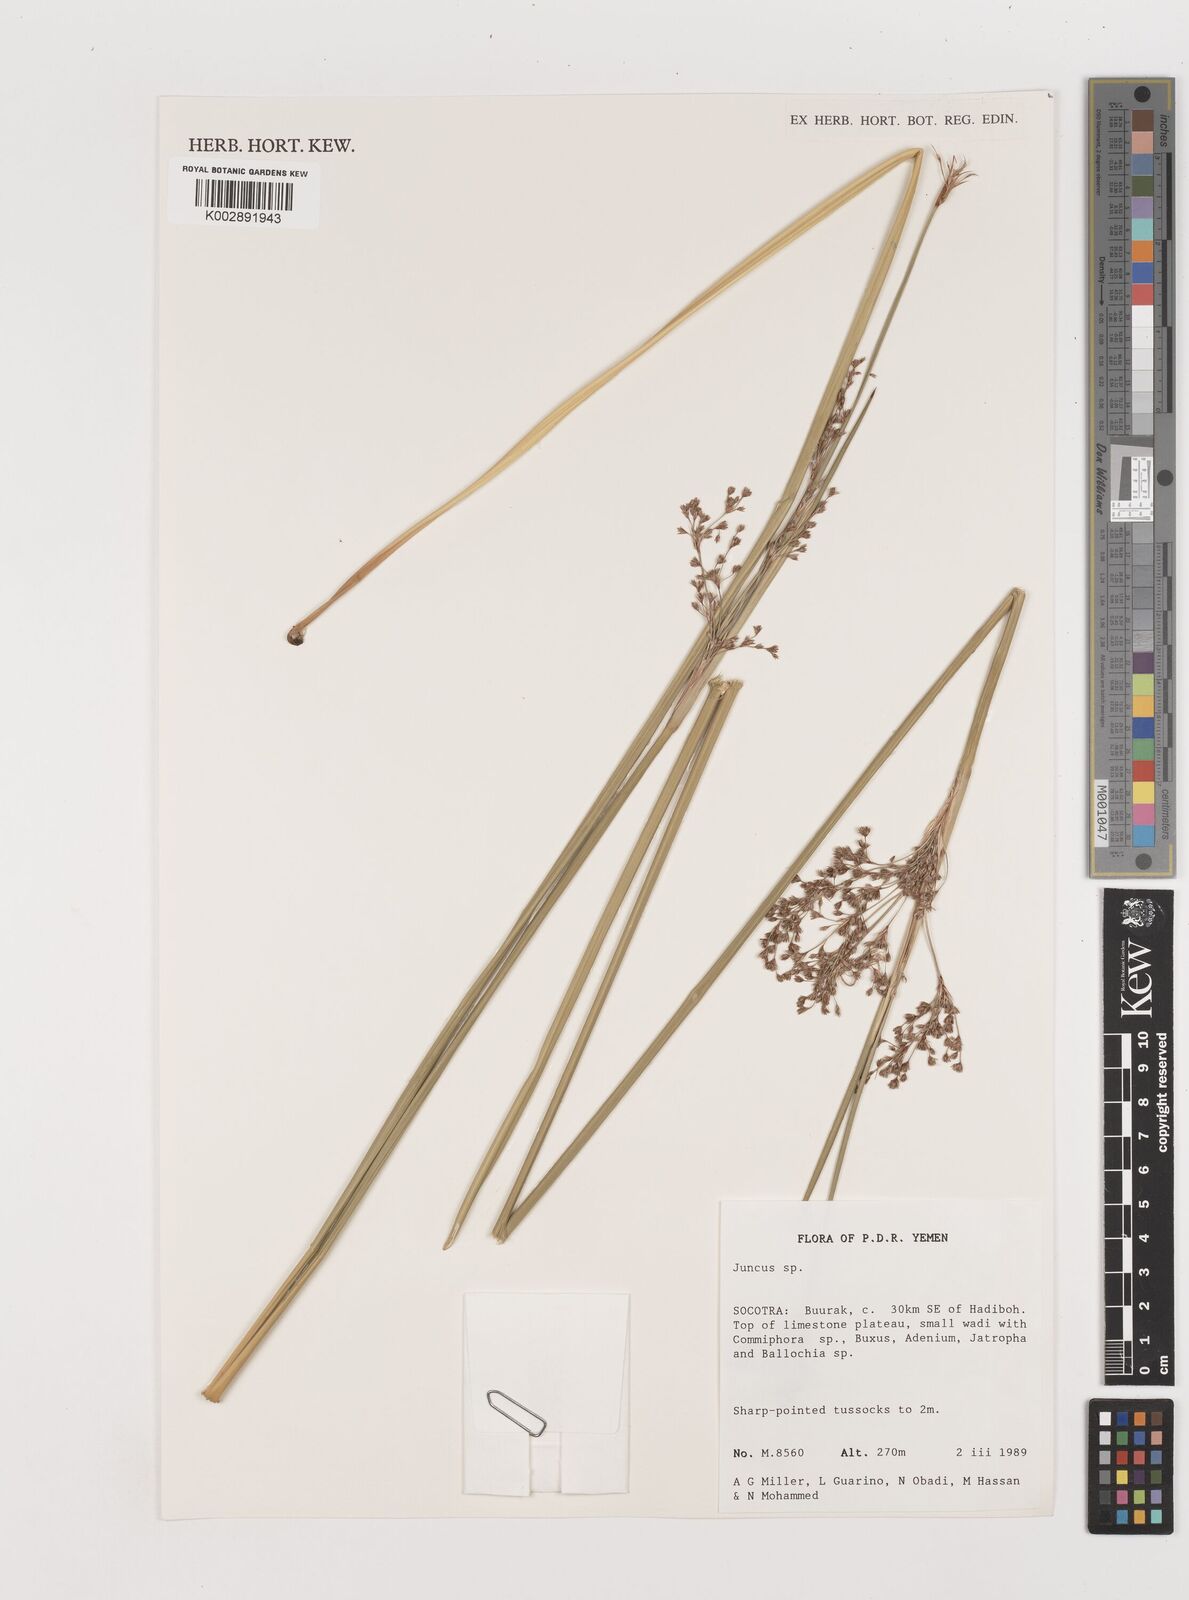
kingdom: Plantae
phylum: Tracheophyta
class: Liliopsida
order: Poales
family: Juncaceae
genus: Juncus
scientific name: Juncus
